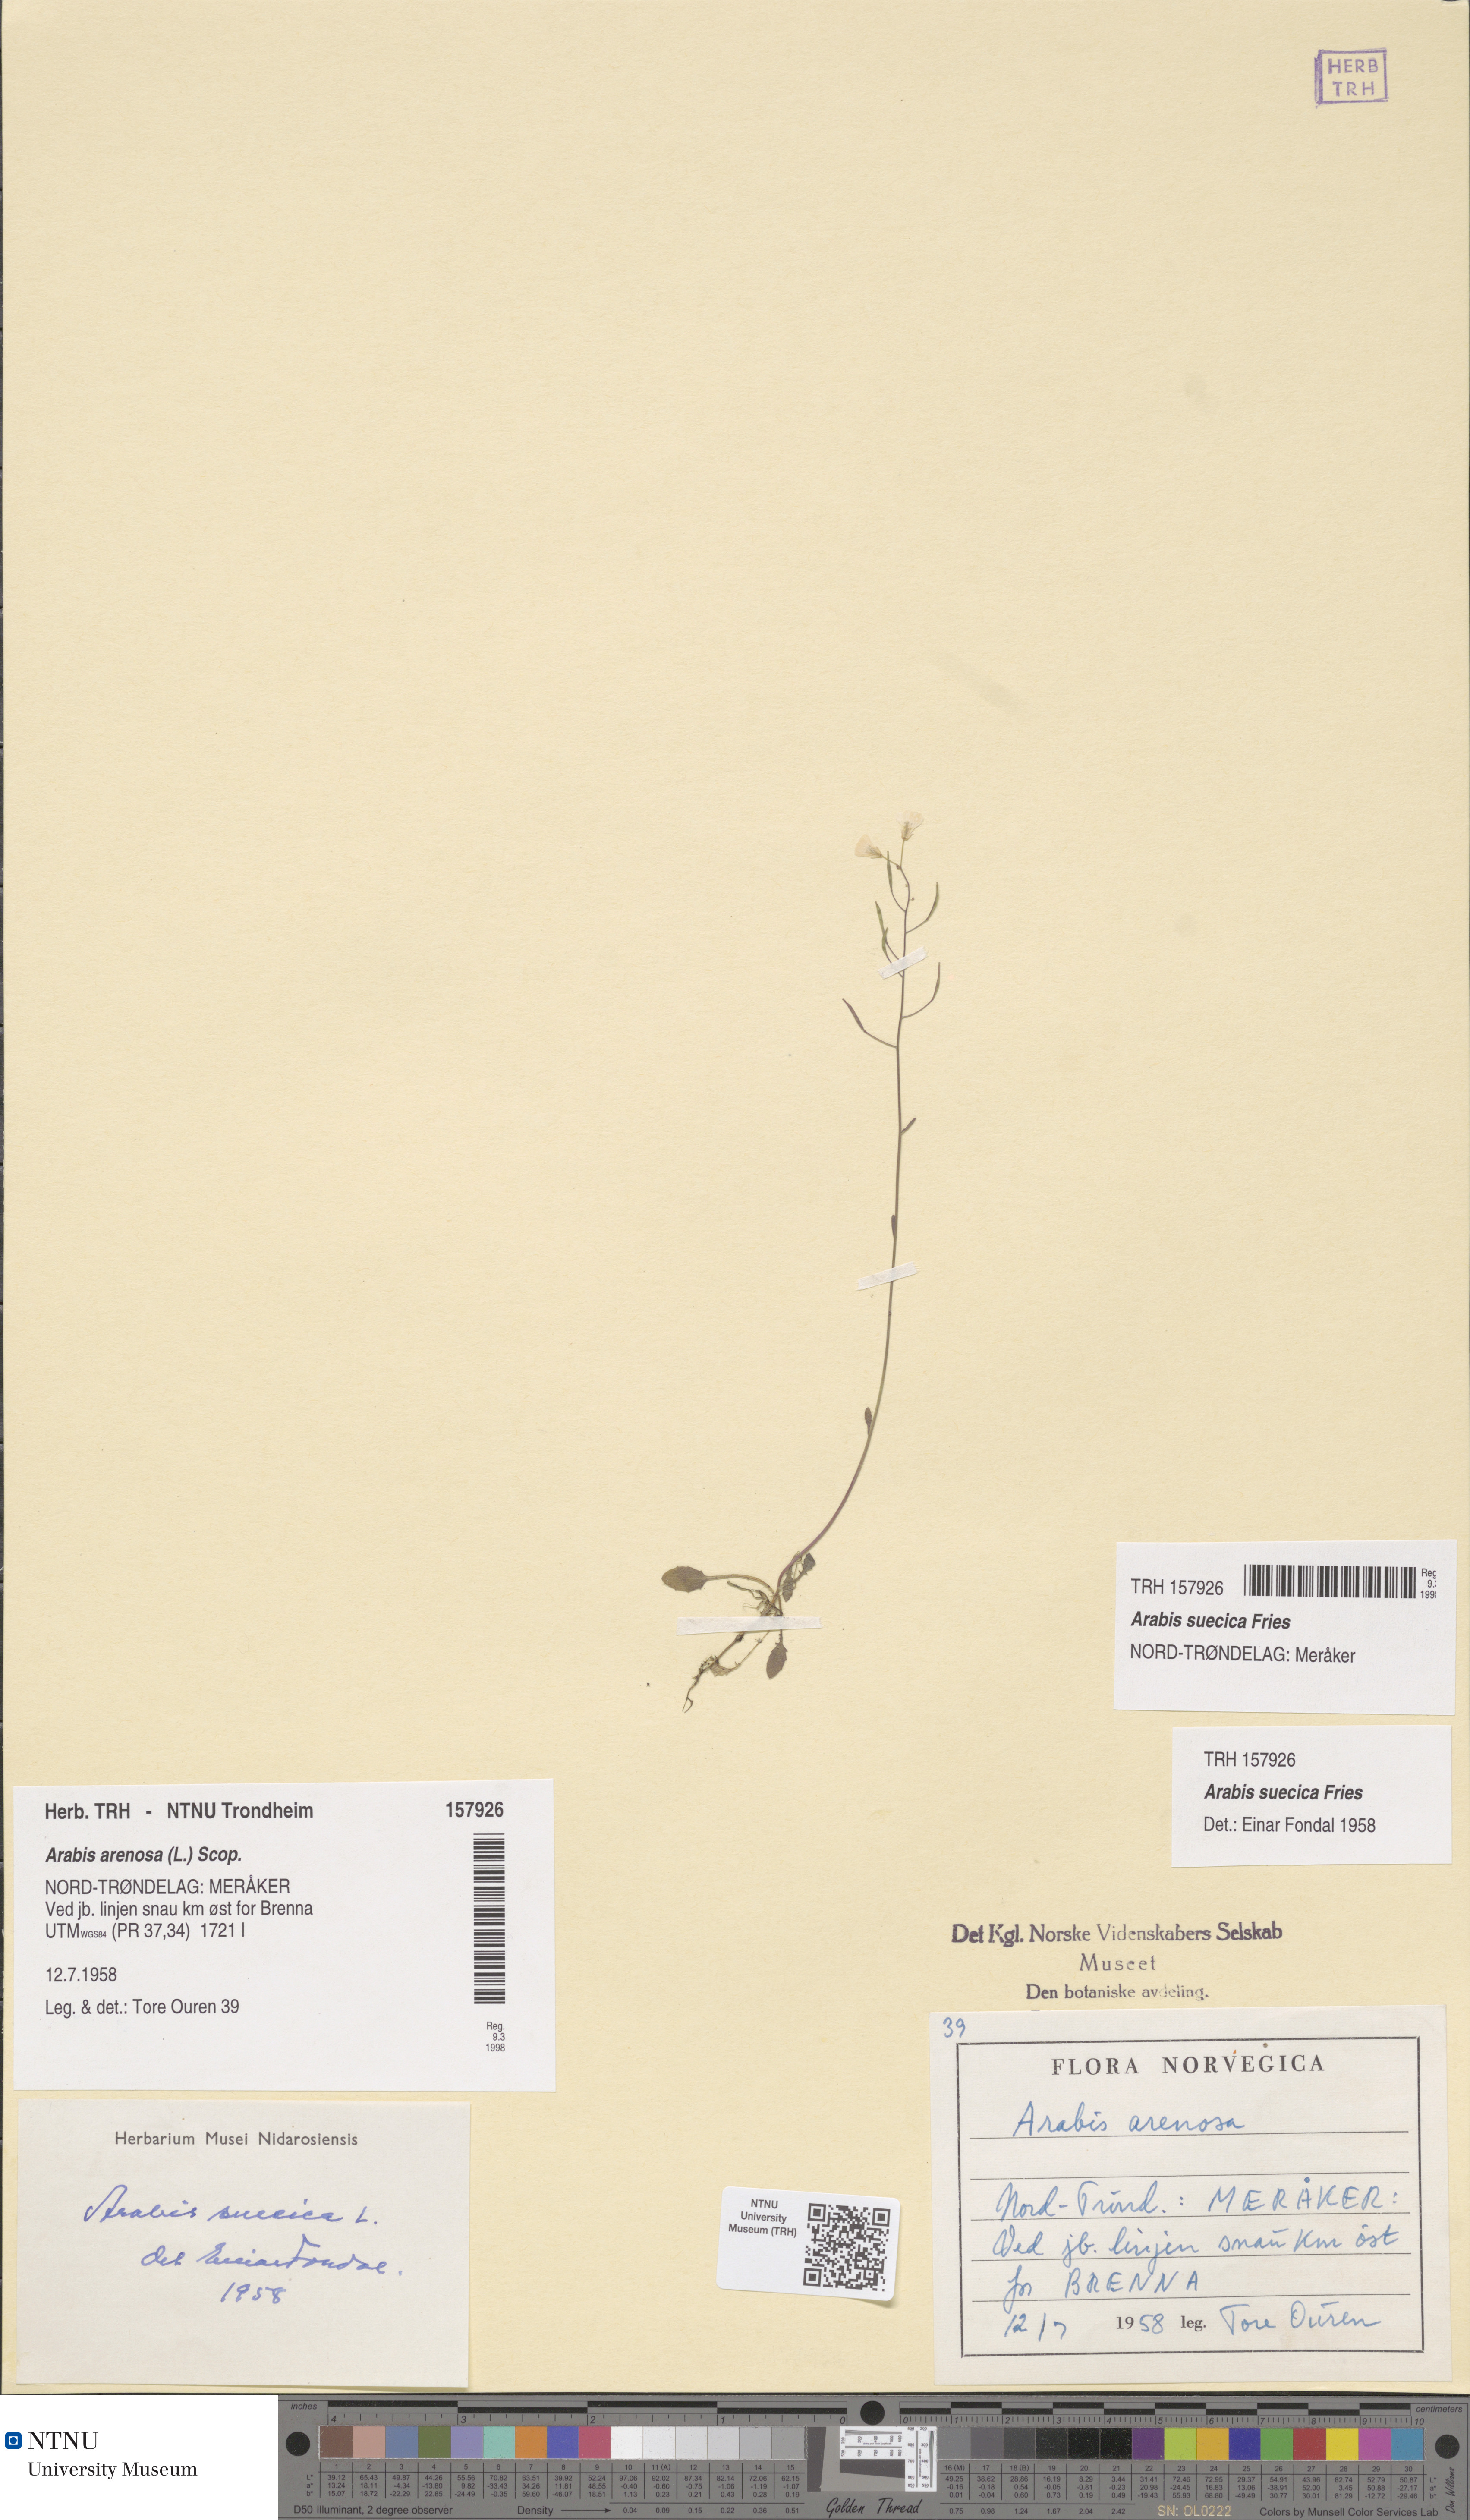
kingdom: Plantae
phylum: Tracheophyta
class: Magnoliopsida
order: Brassicales
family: Brassicaceae
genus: Arabidopsis
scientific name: Arabidopsis suecica
